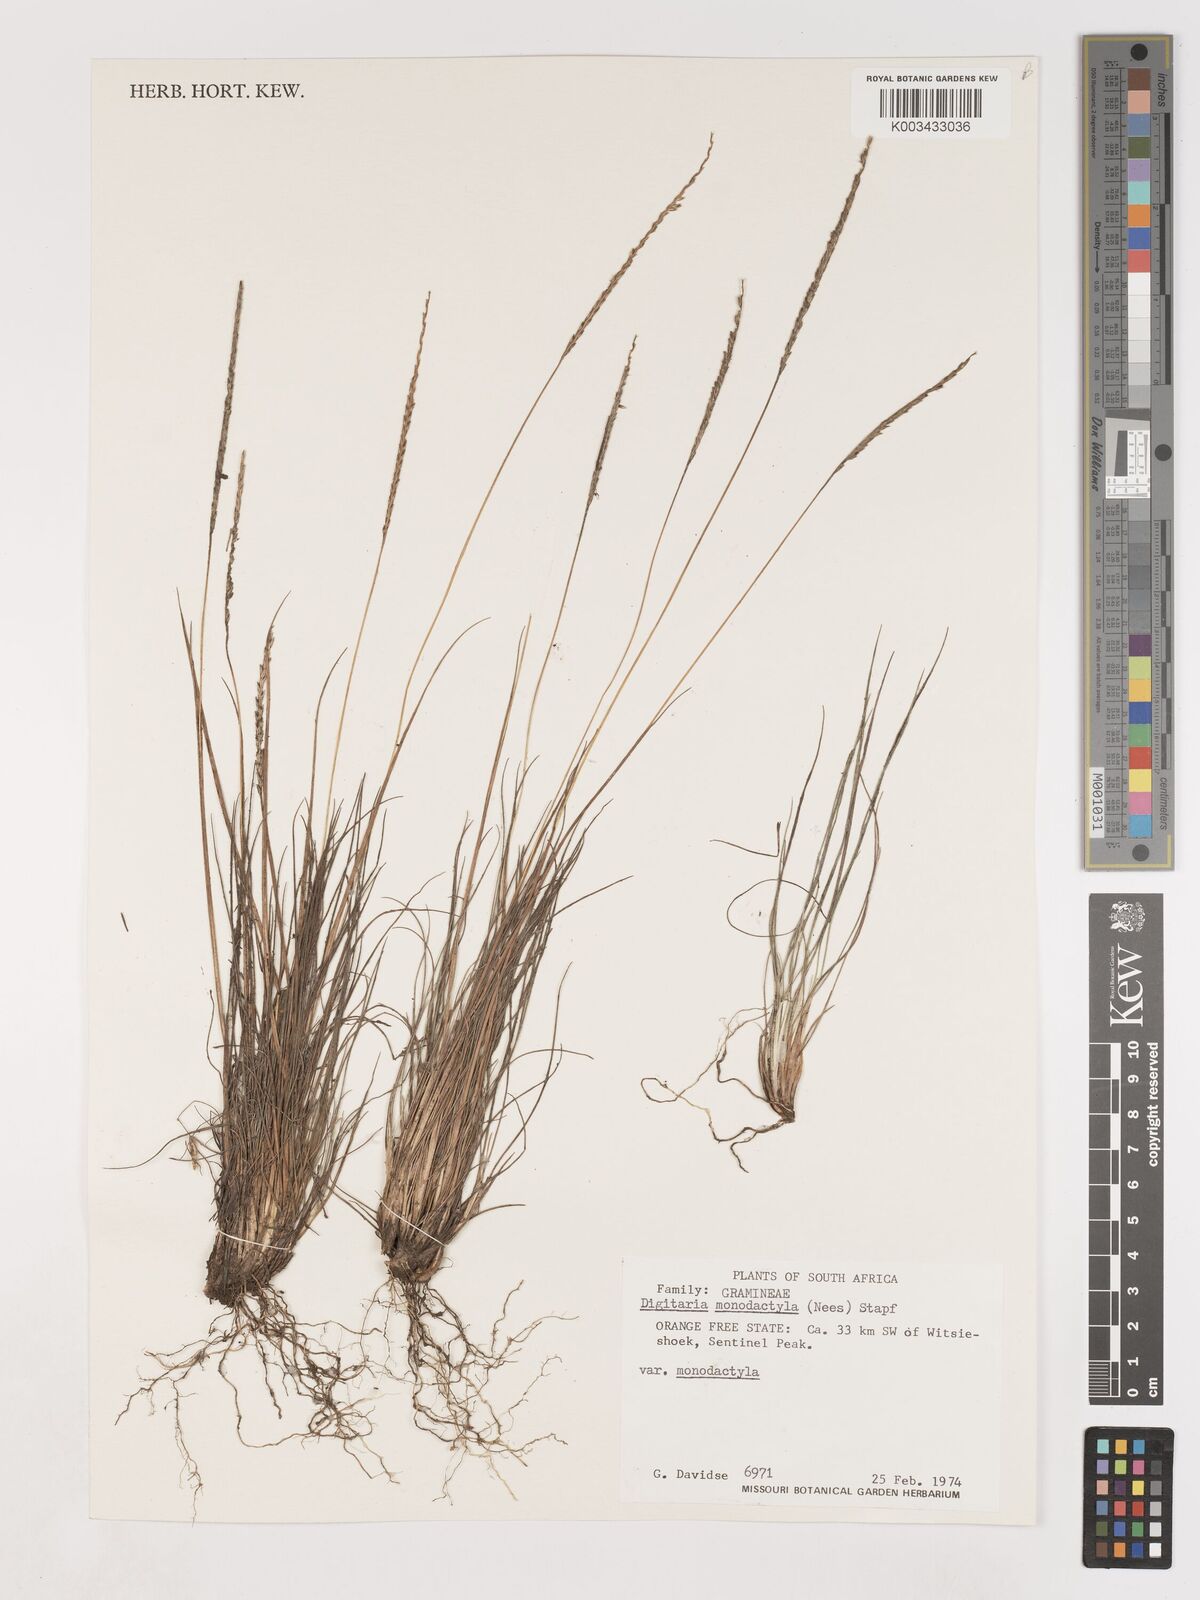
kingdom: Plantae
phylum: Tracheophyta
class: Liliopsida
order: Poales
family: Poaceae
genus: Digitaria
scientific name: Digitaria monodactyla
